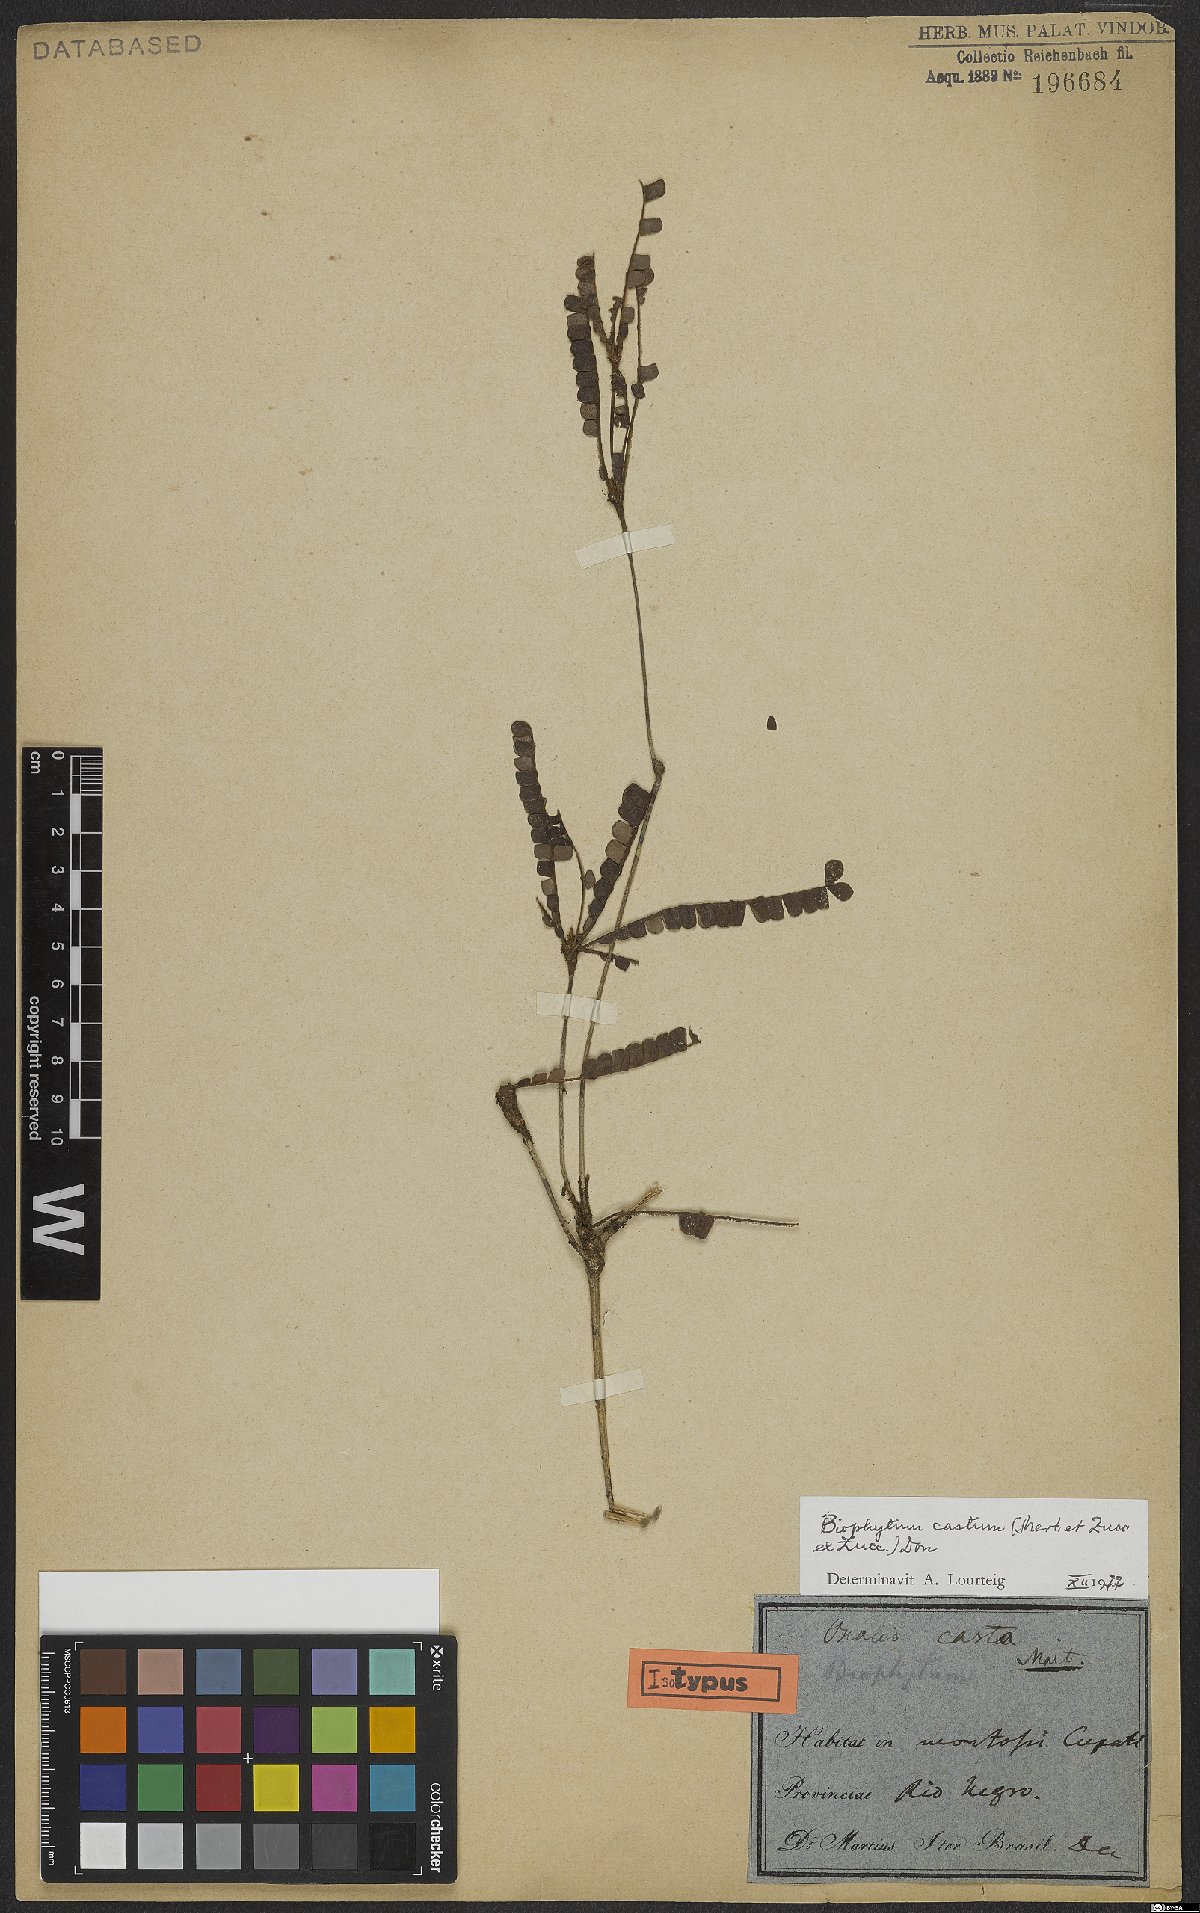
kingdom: Plantae
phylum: Tracheophyta
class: Magnoliopsida
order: Oxalidales
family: Oxalidaceae
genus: Biophytum
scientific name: Biophytum castum
